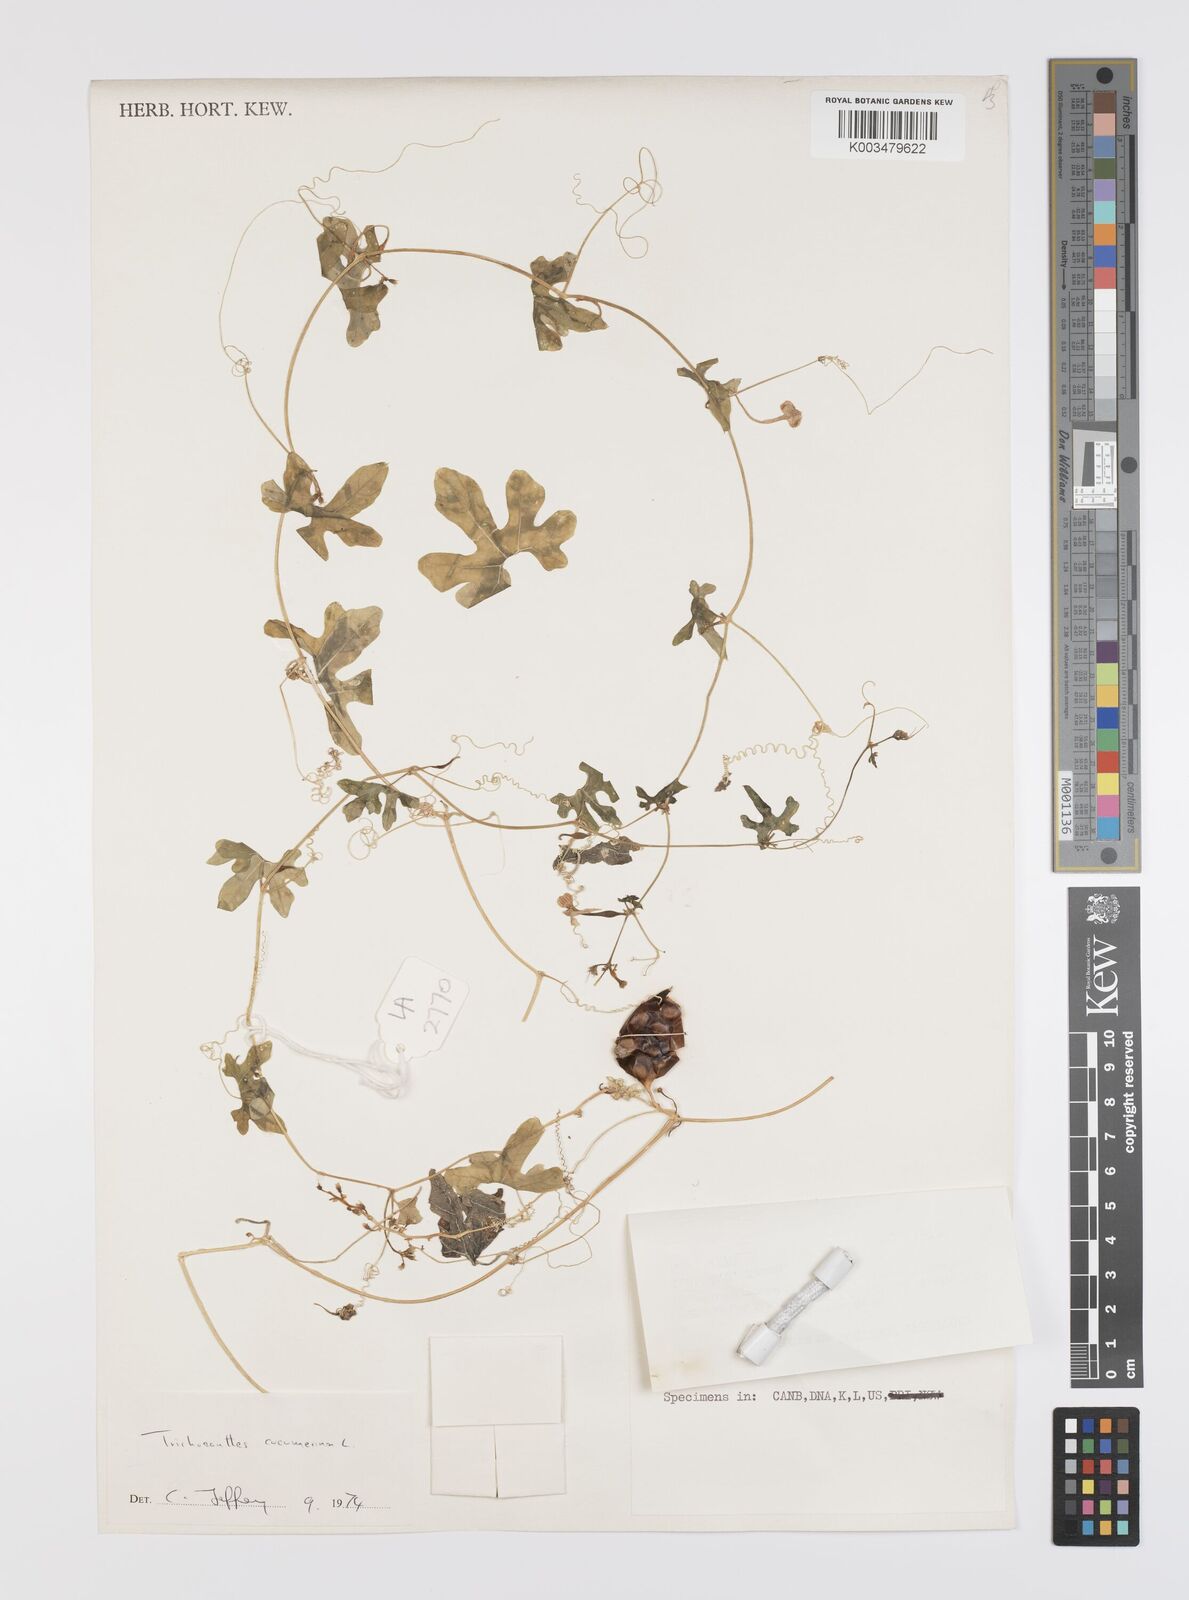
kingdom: Plantae
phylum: Tracheophyta
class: Magnoliopsida
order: Cucurbitales
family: Cucurbitaceae
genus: Trichosanthes
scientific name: Trichosanthes cucumerina
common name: Snakegourd
